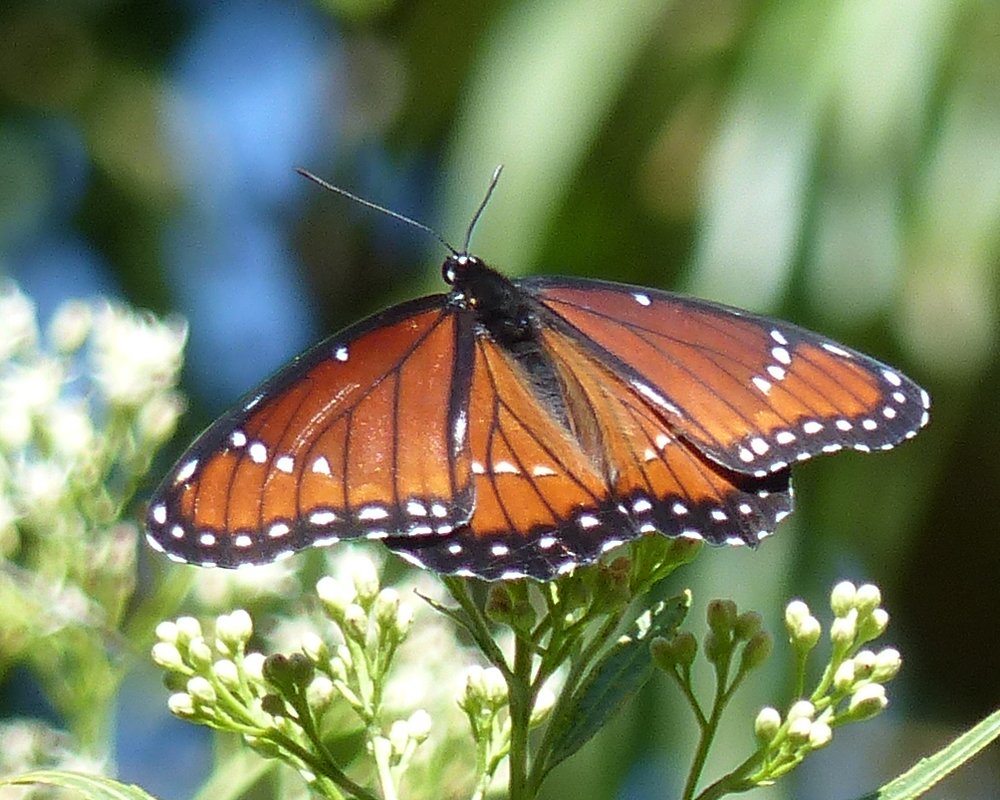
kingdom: Animalia
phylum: Arthropoda
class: Insecta
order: Lepidoptera
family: Nymphalidae
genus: Limenitis
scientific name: Limenitis archippus
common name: Viceroy
